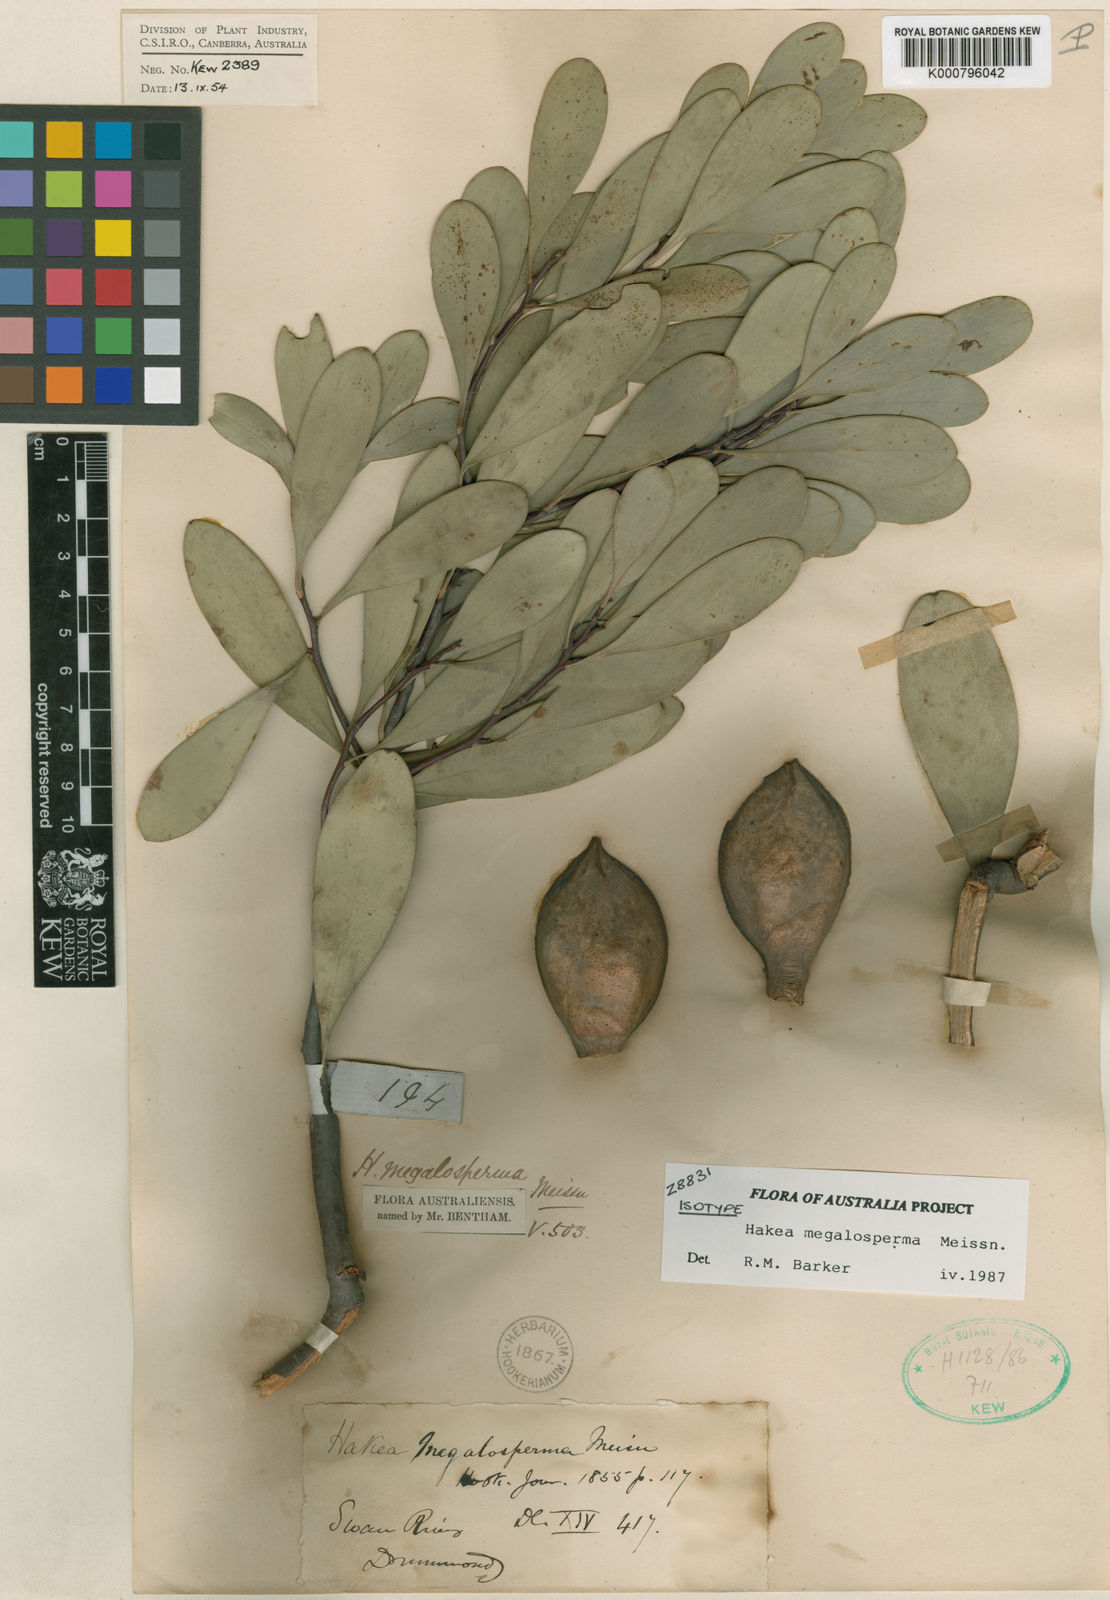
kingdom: Plantae
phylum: Tracheophyta
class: Magnoliopsida
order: Proteales
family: Proteaceae
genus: Hakea
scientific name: Hakea megalosperma
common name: Lesueur hakea
